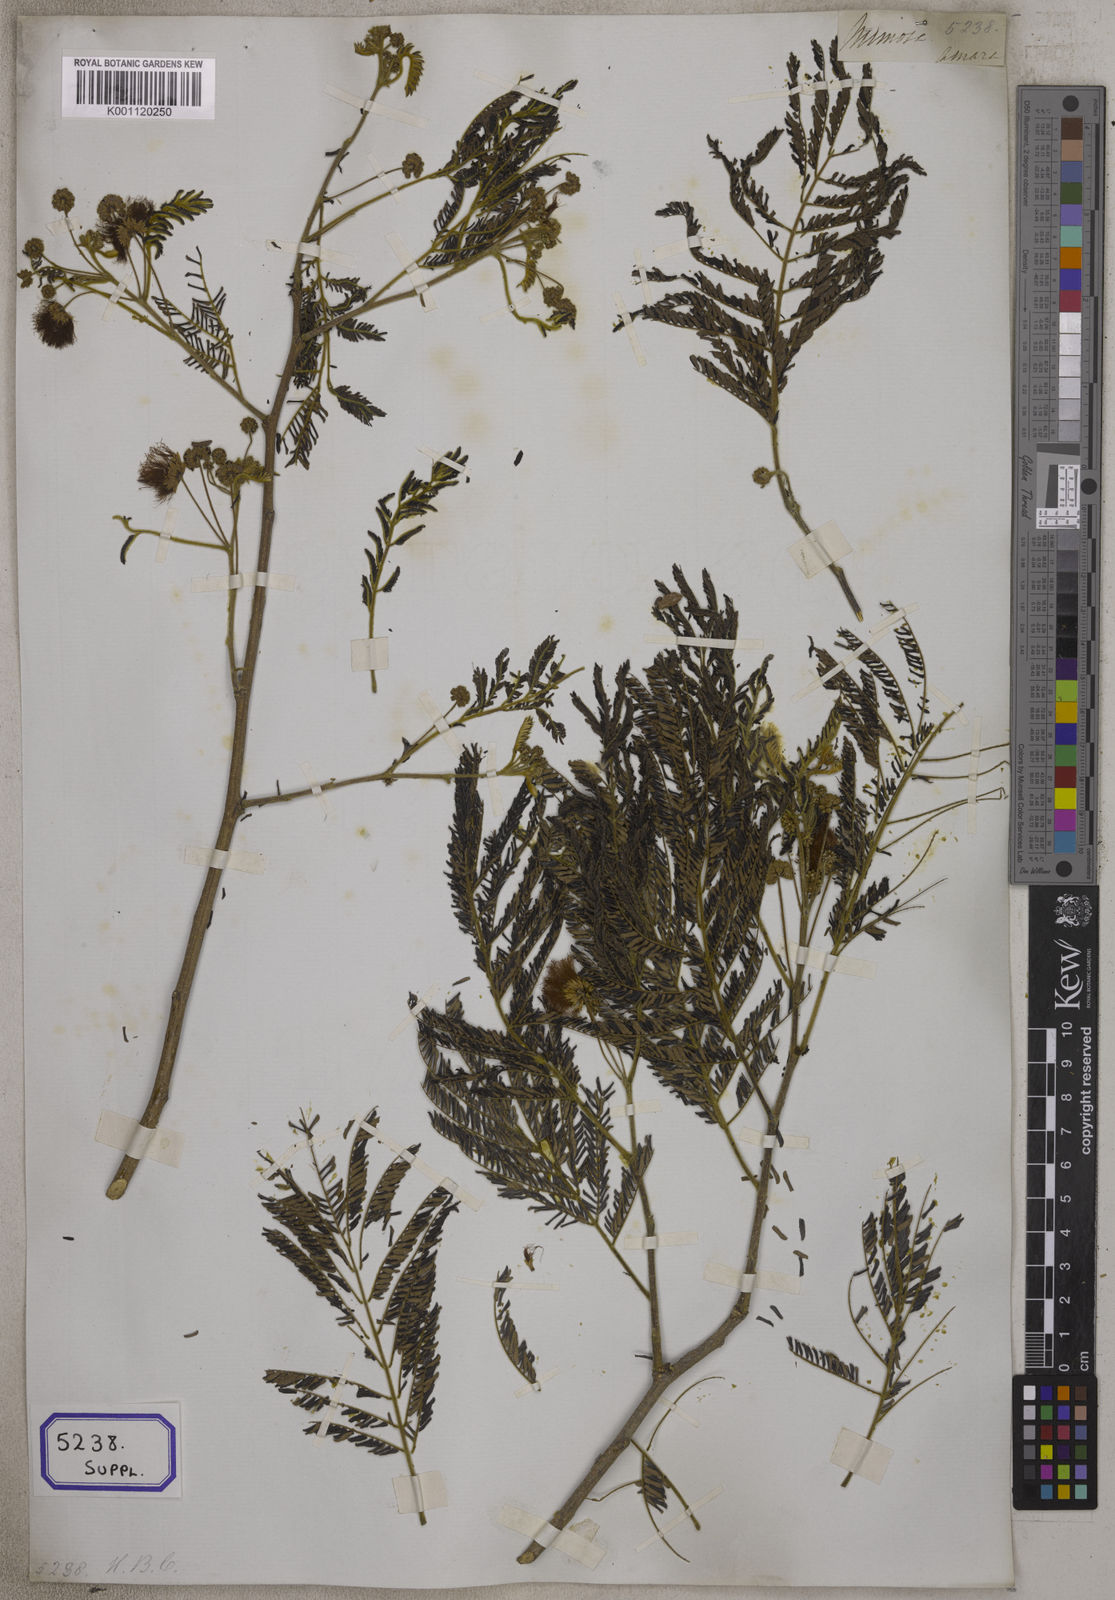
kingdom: Plantae
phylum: Tracheophyta
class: Magnoliopsida
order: Fabales
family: Fabaceae
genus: Albizia
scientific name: Albizia amara
